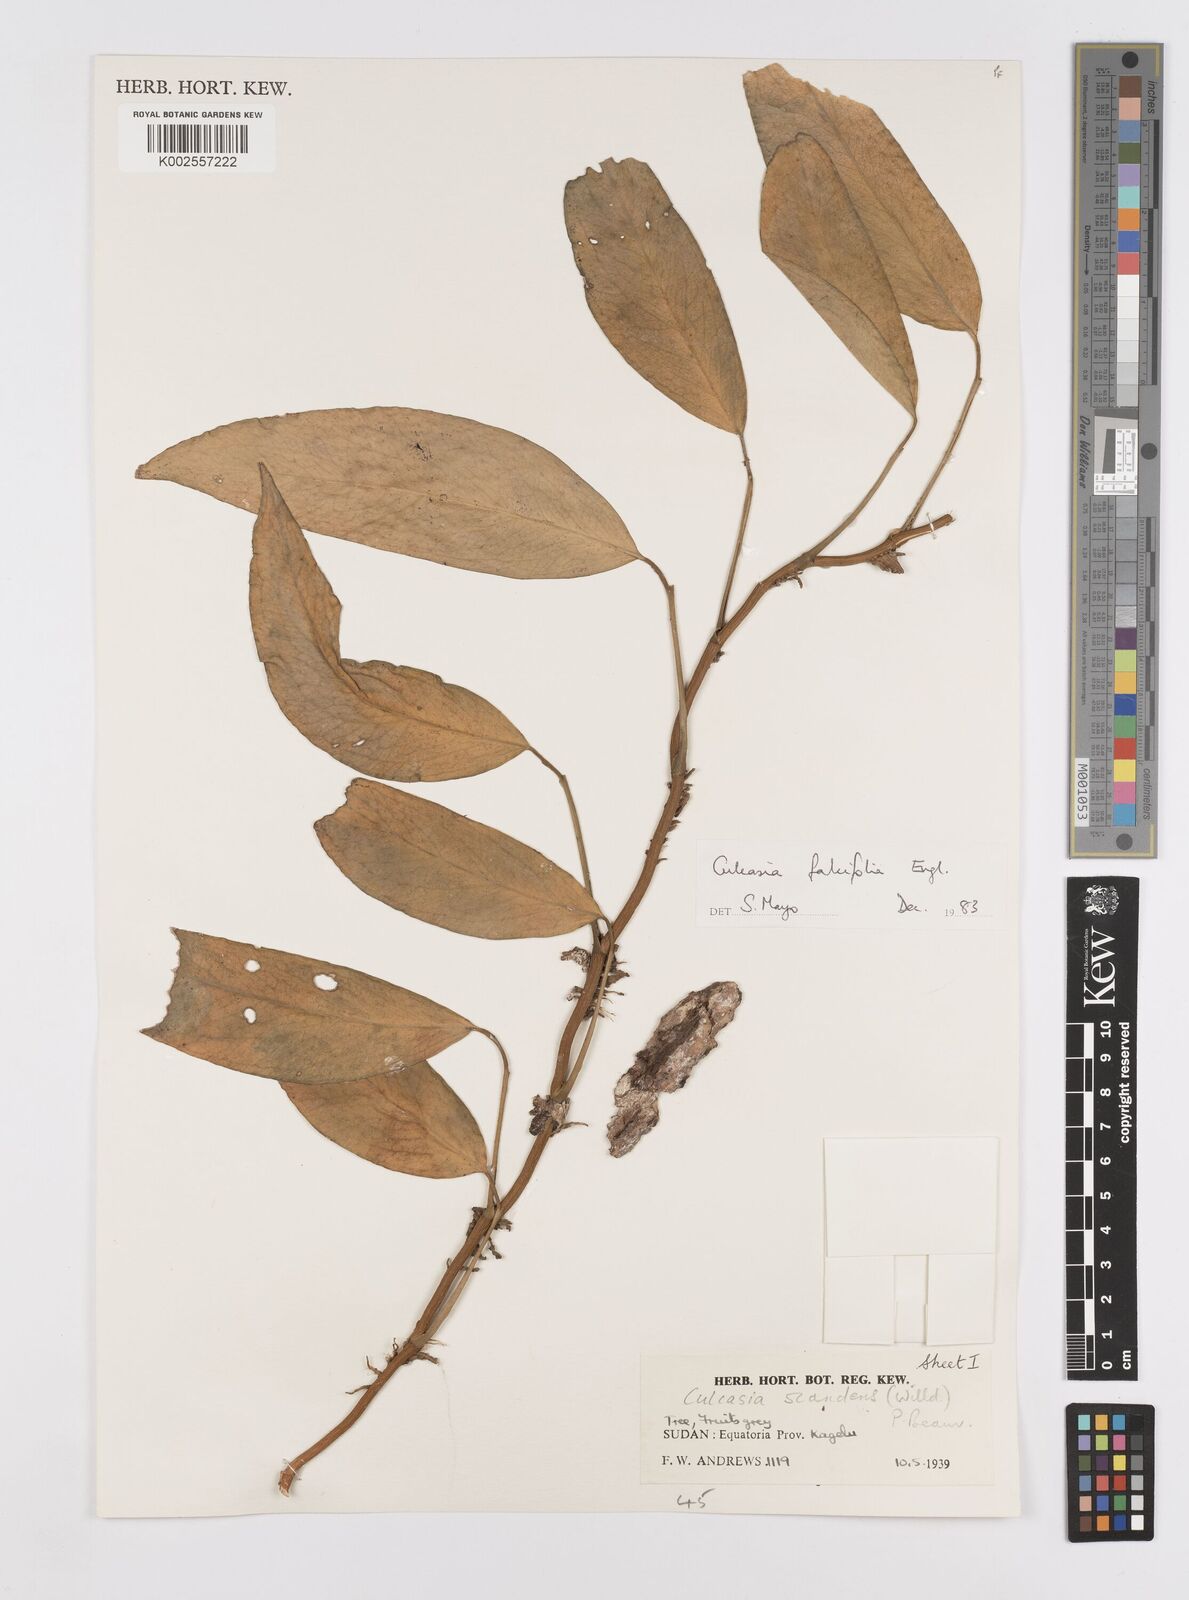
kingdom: Plantae
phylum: Tracheophyta
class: Liliopsida
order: Alismatales
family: Araceae
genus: Culcasia
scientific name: Culcasia falcifolia
